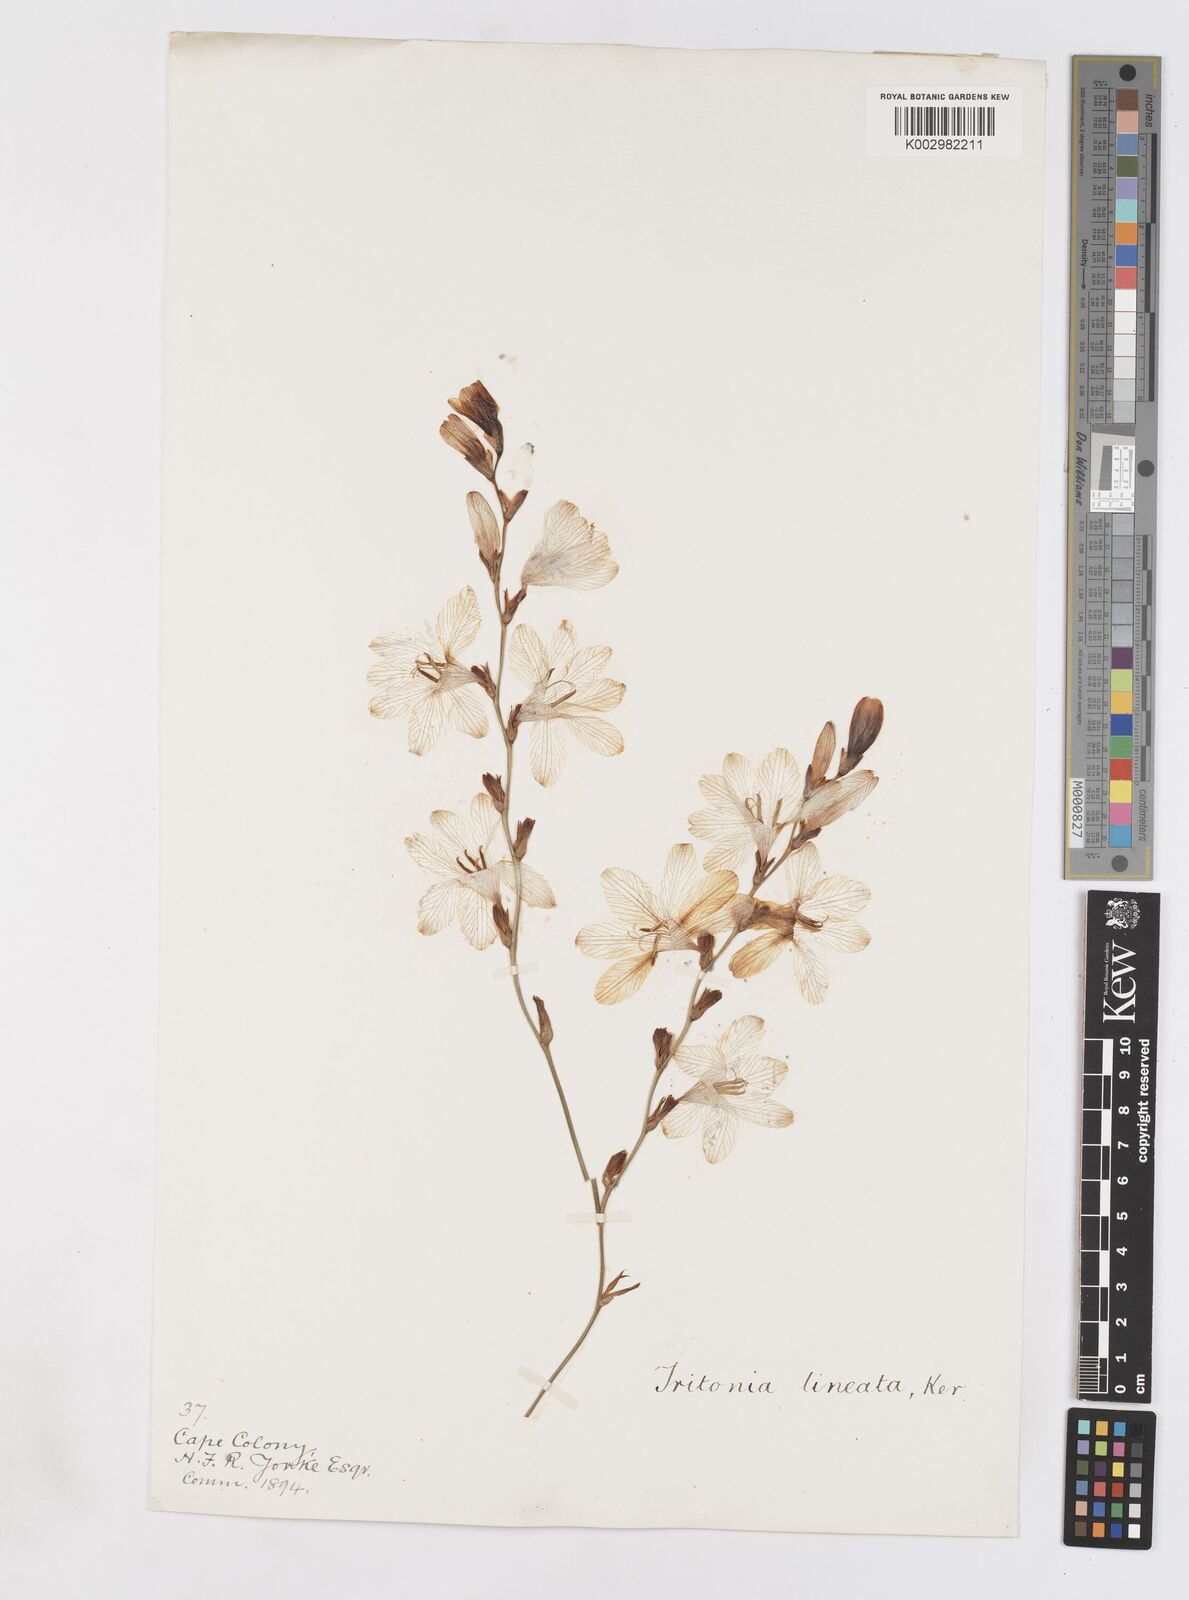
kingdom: Plantae
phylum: Tracheophyta
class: Liliopsida
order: Asparagales
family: Iridaceae
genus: Tritonia
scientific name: Tritonia gladiolaris
